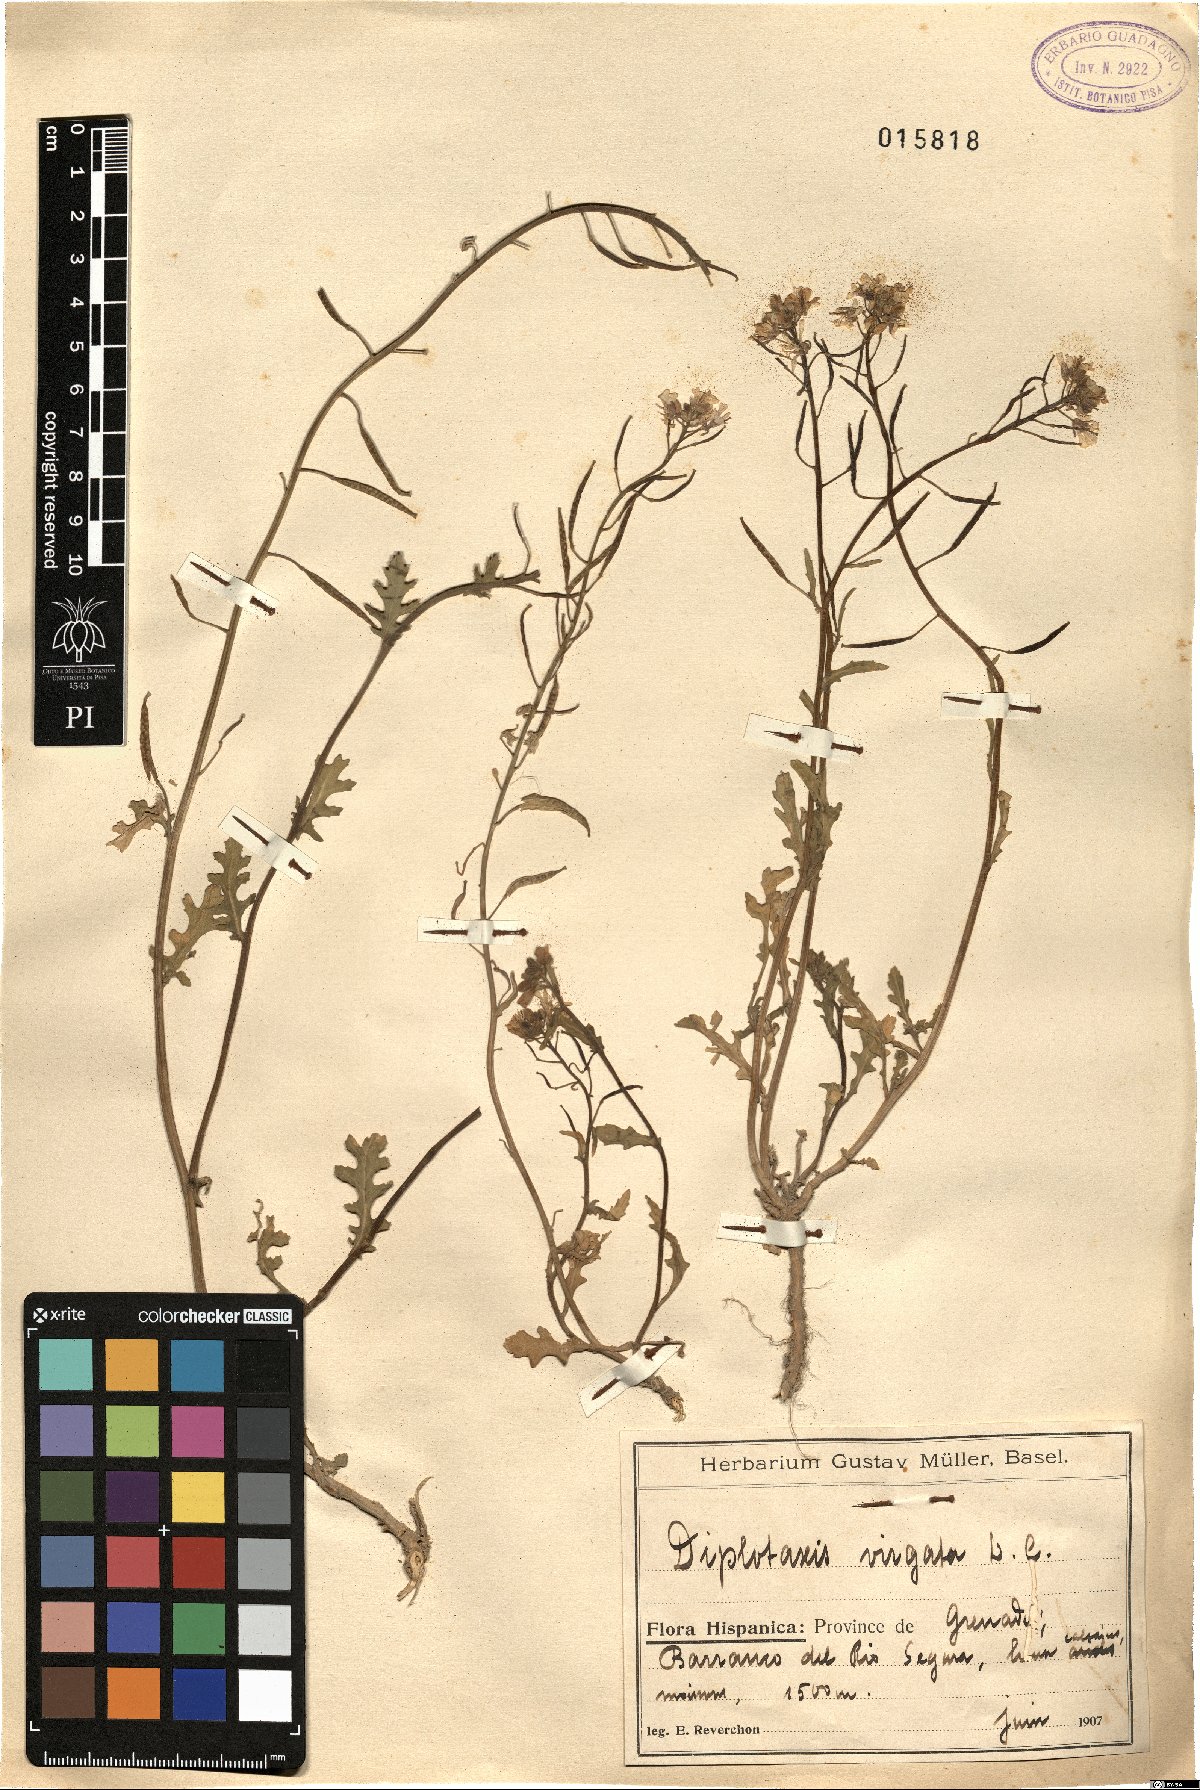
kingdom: Plantae
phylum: Tracheophyta
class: Magnoliopsida
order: Brassicales
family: Brassicaceae
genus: Diplotaxis
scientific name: Diplotaxis virgata
